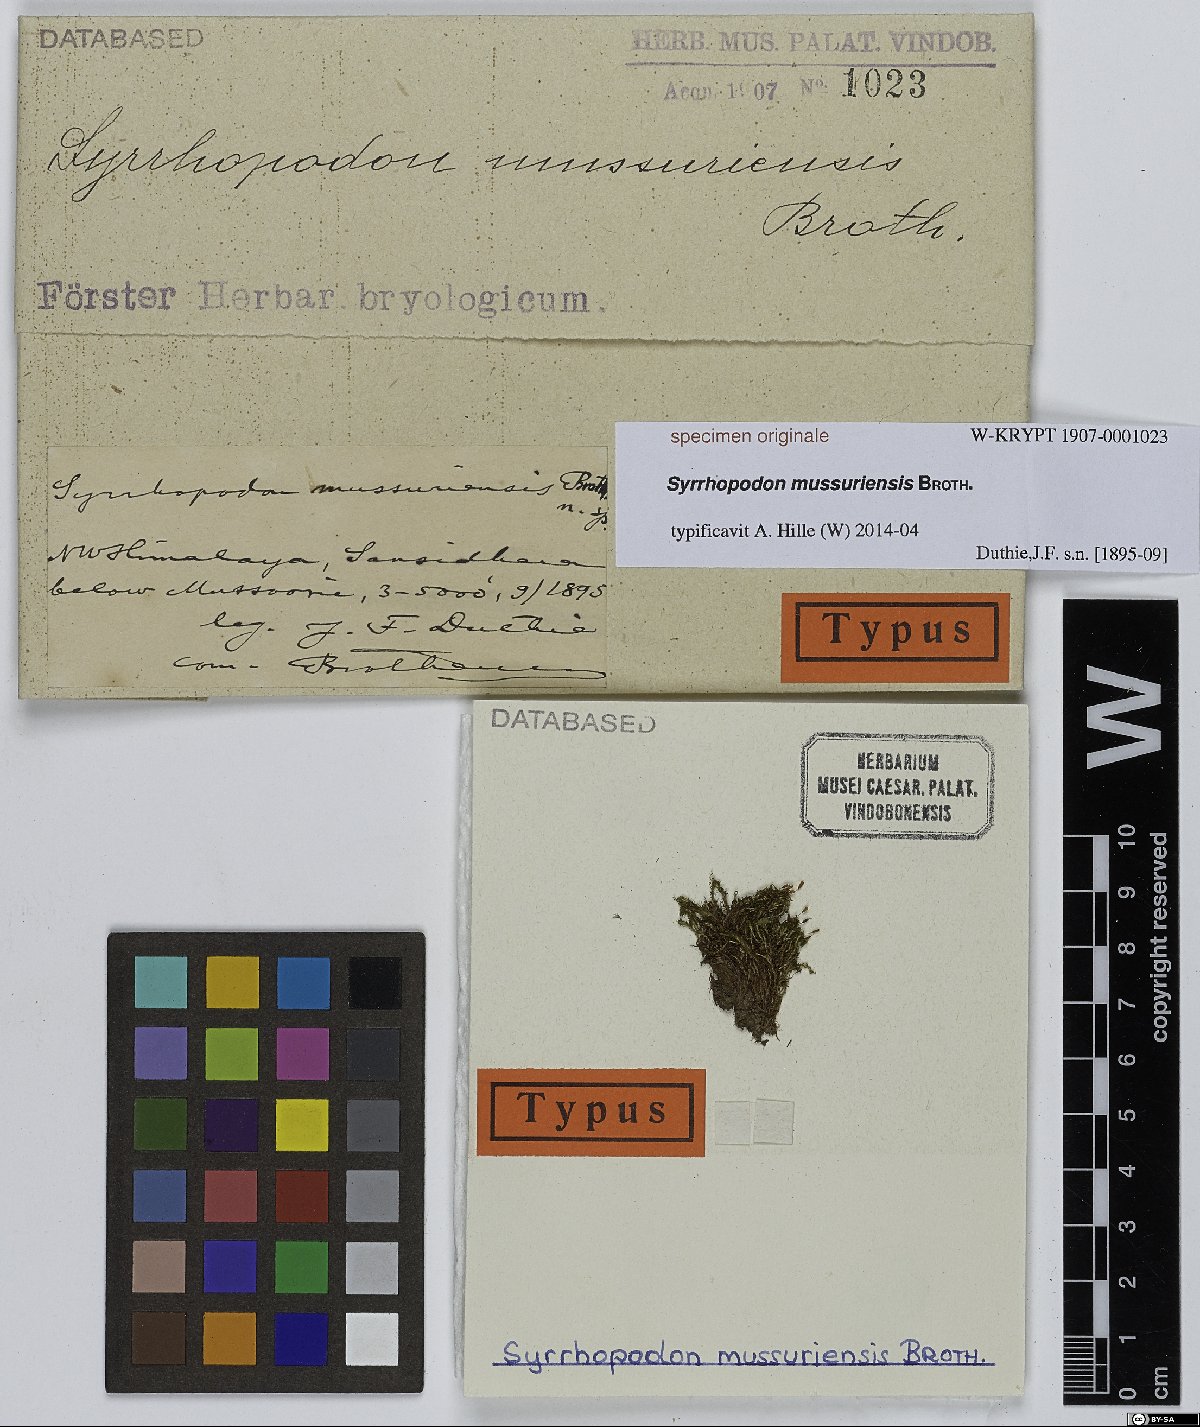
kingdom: Plantae
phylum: Bryophyta
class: Bryopsida
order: Dicranales
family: Calymperaceae
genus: Syrrhopodon
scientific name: Syrrhopodon
